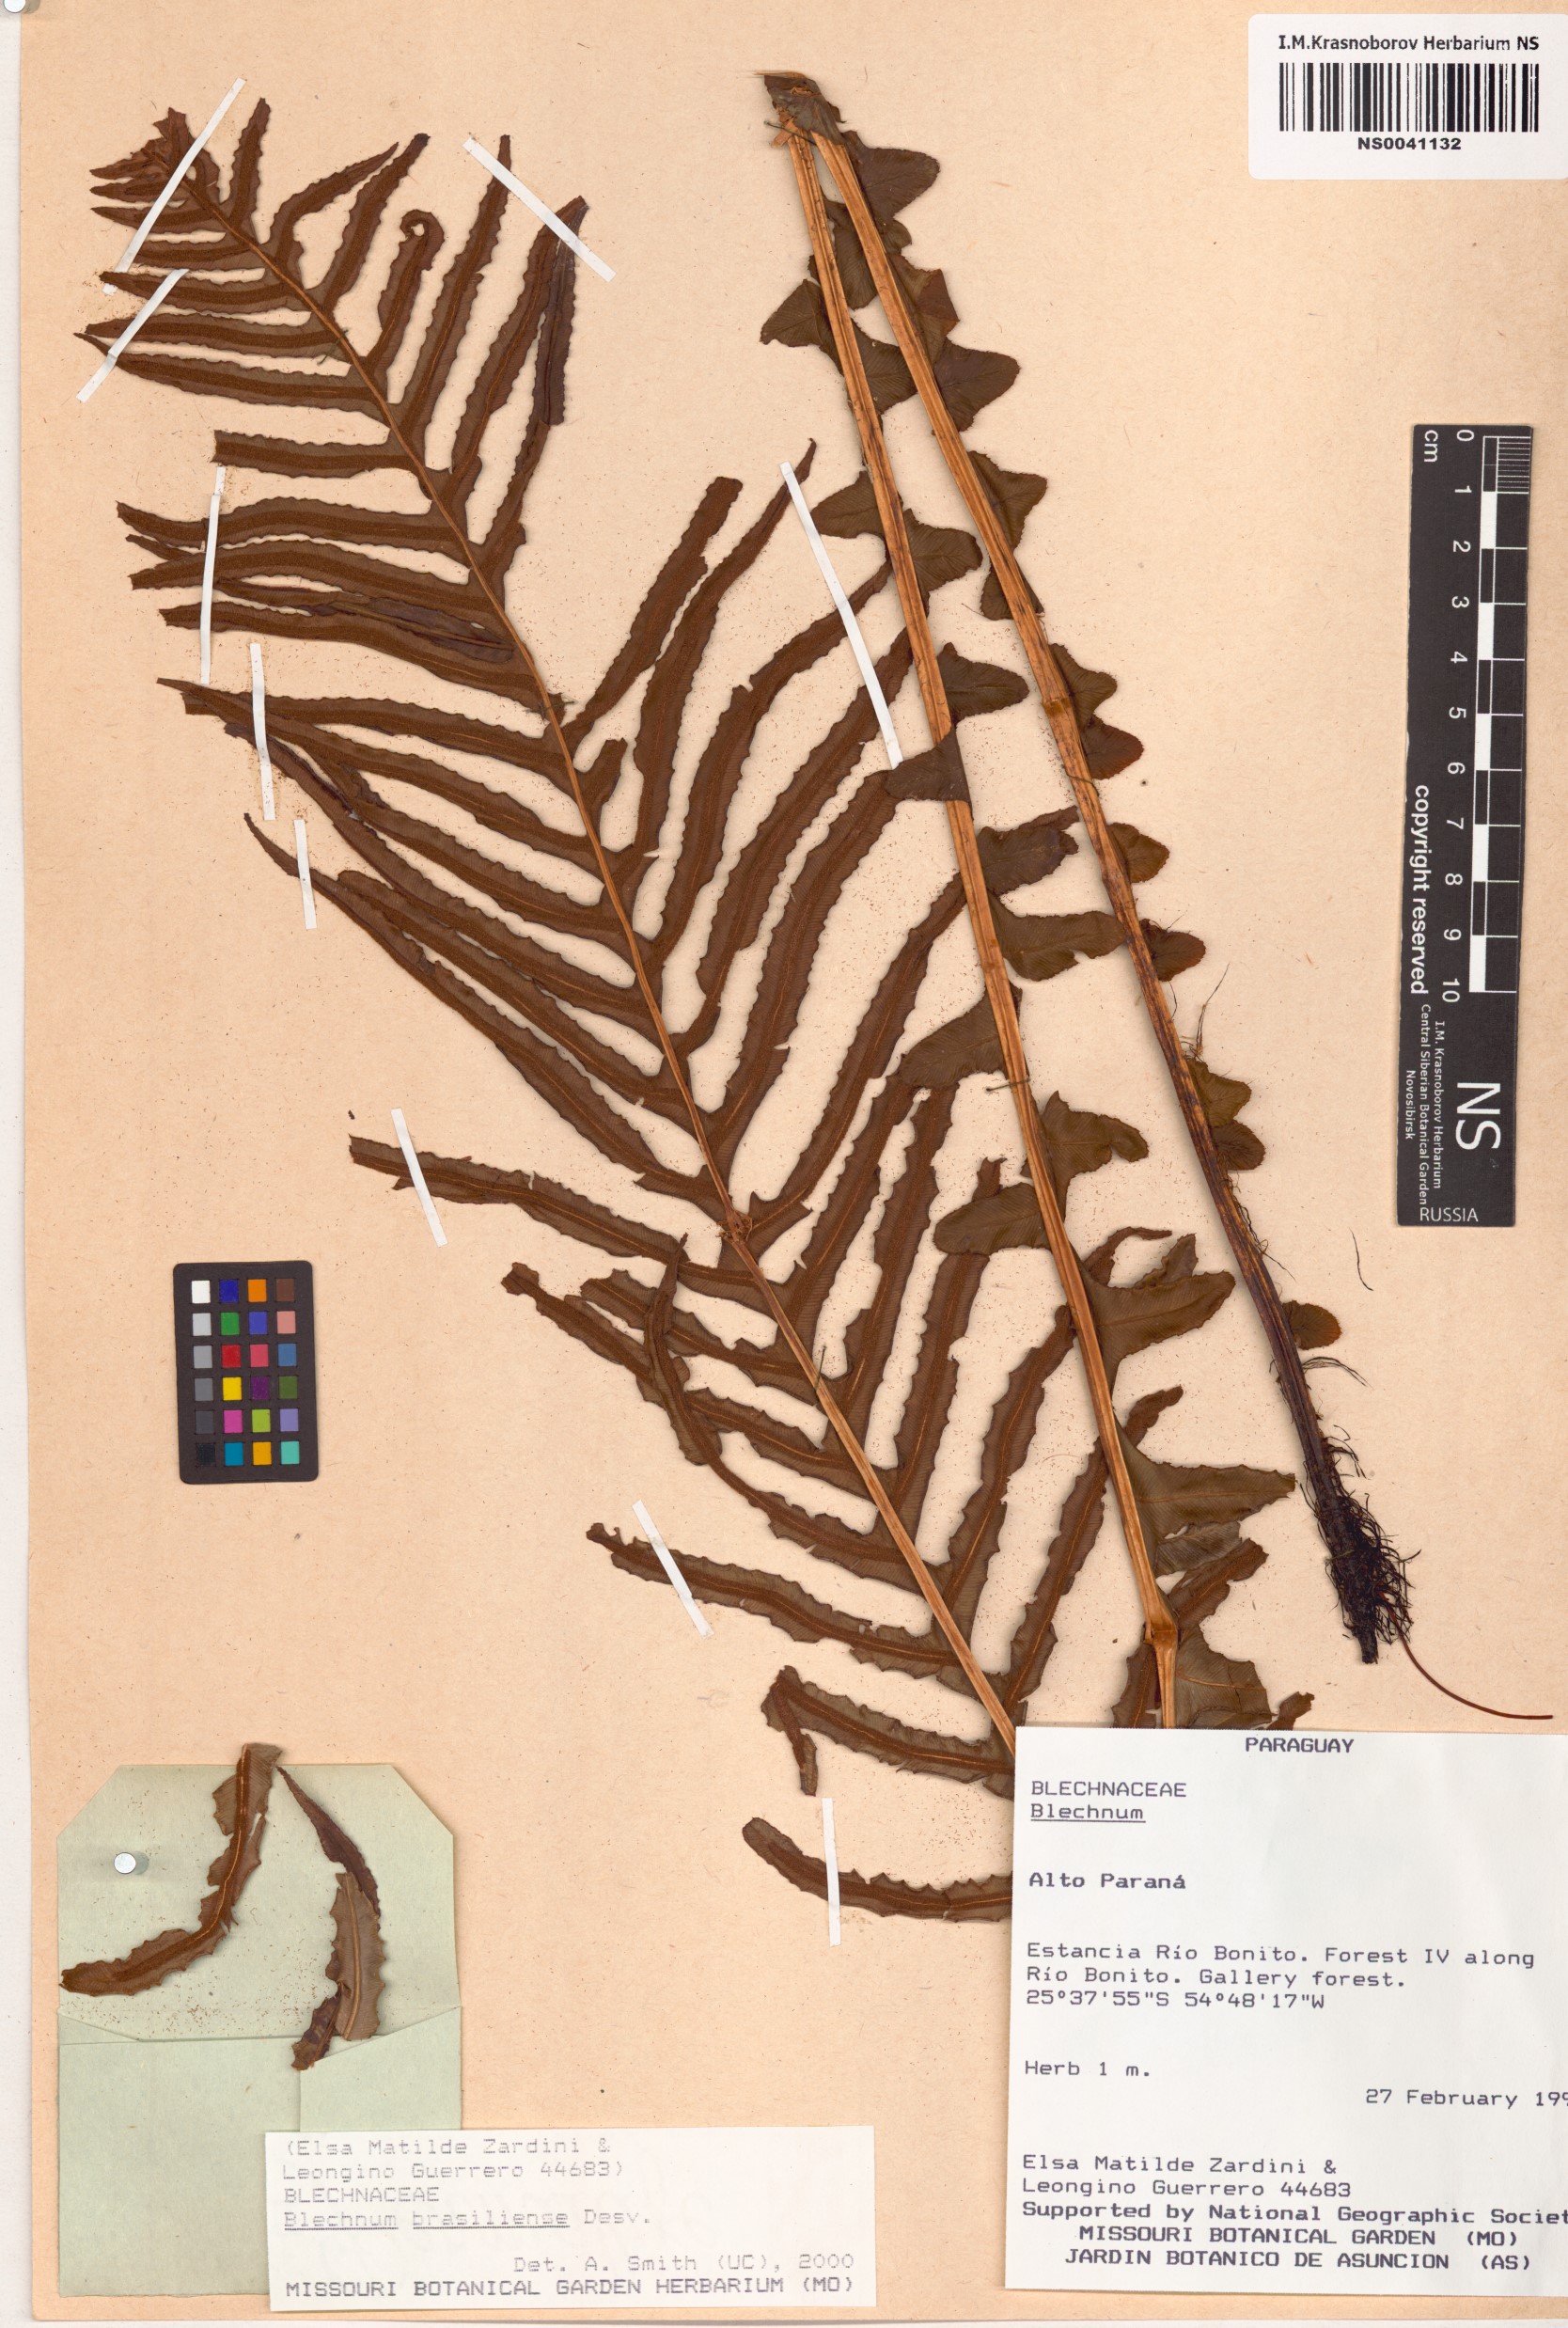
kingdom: Plantae
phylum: Tracheophyta
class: Polypodiopsida
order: Polypodiales
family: Blechnaceae
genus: Neoblechnum
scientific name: Neoblechnum brasiliense
